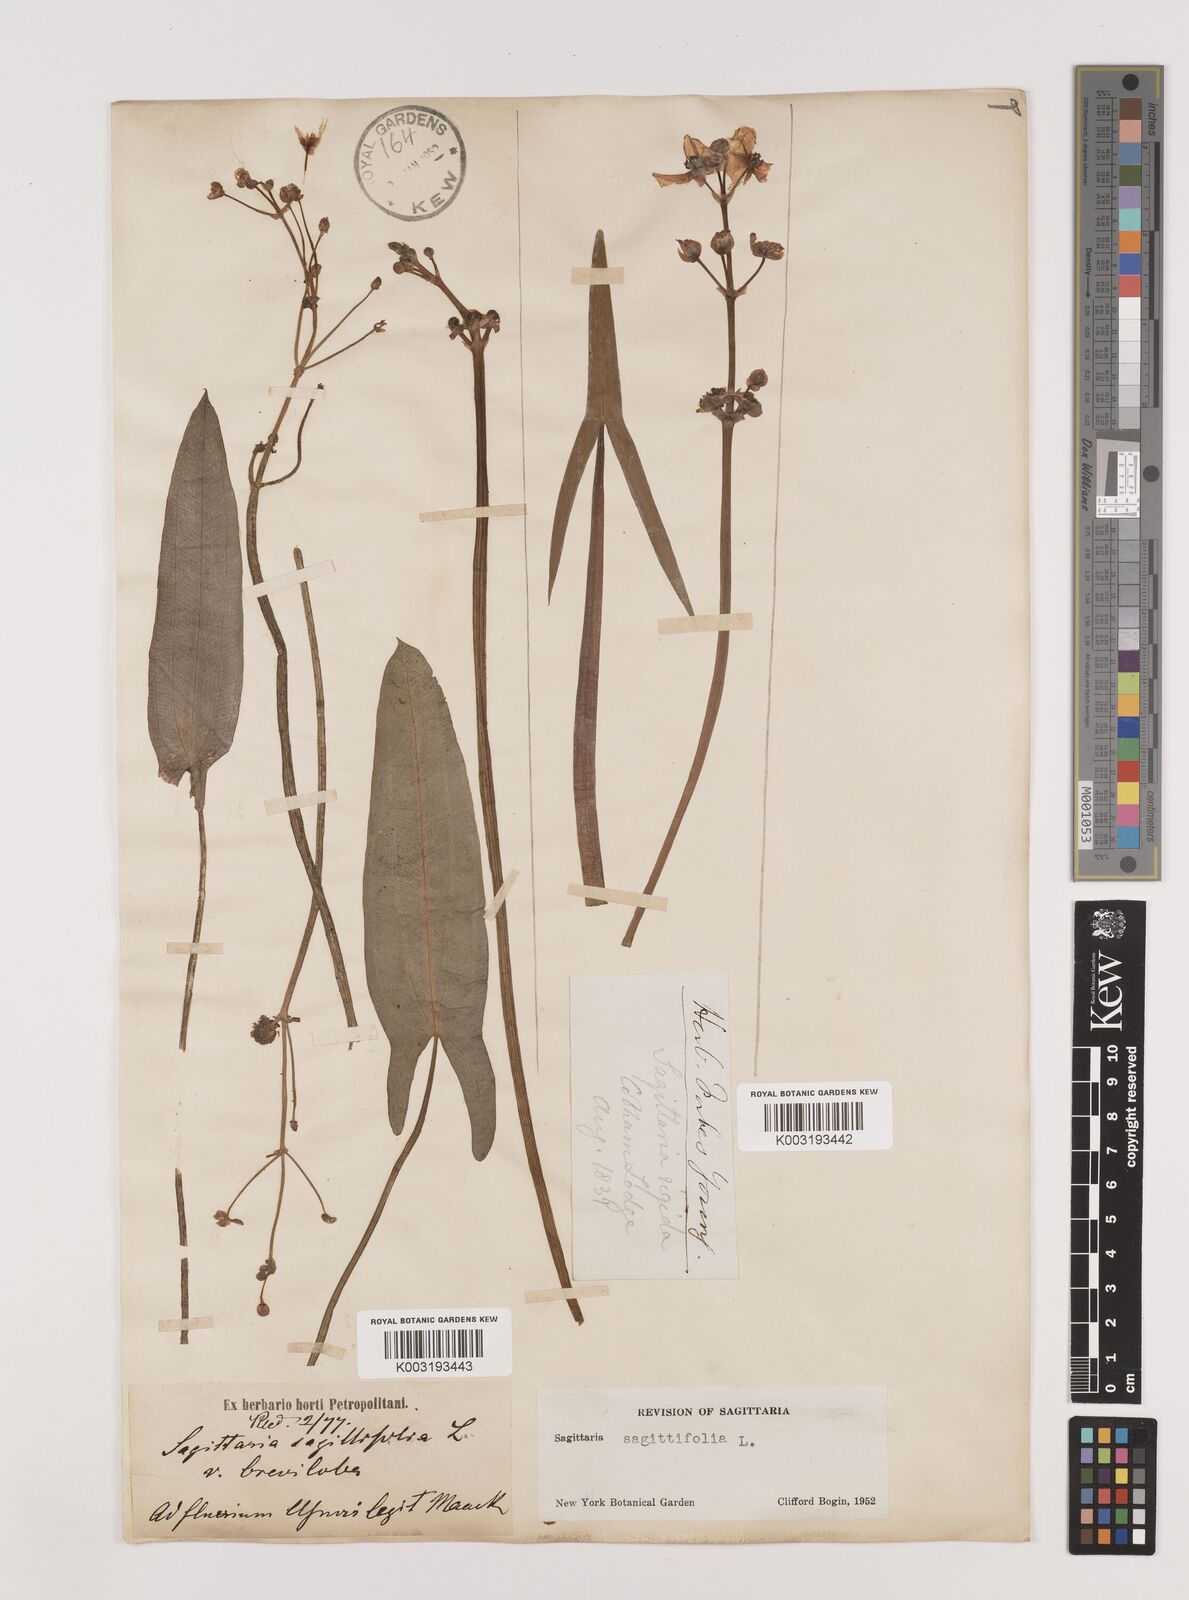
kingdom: Plantae
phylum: Tracheophyta
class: Liliopsida
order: Alismatales
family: Alismataceae
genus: Sagittaria
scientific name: Sagittaria trifolia
